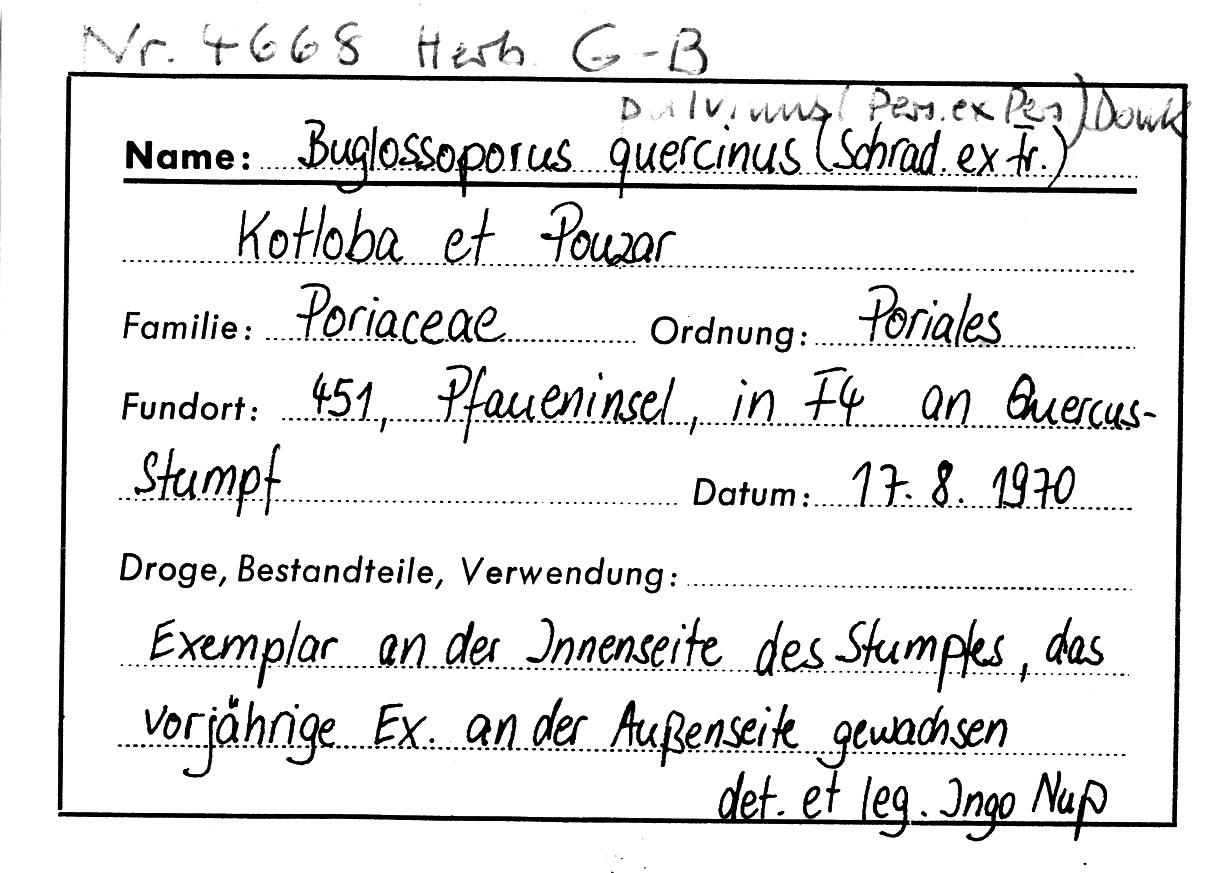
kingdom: Plantae
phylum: Tracheophyta
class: Magnoliopsida
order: Fagales
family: Fagaceae
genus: Quercus
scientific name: Quercus
